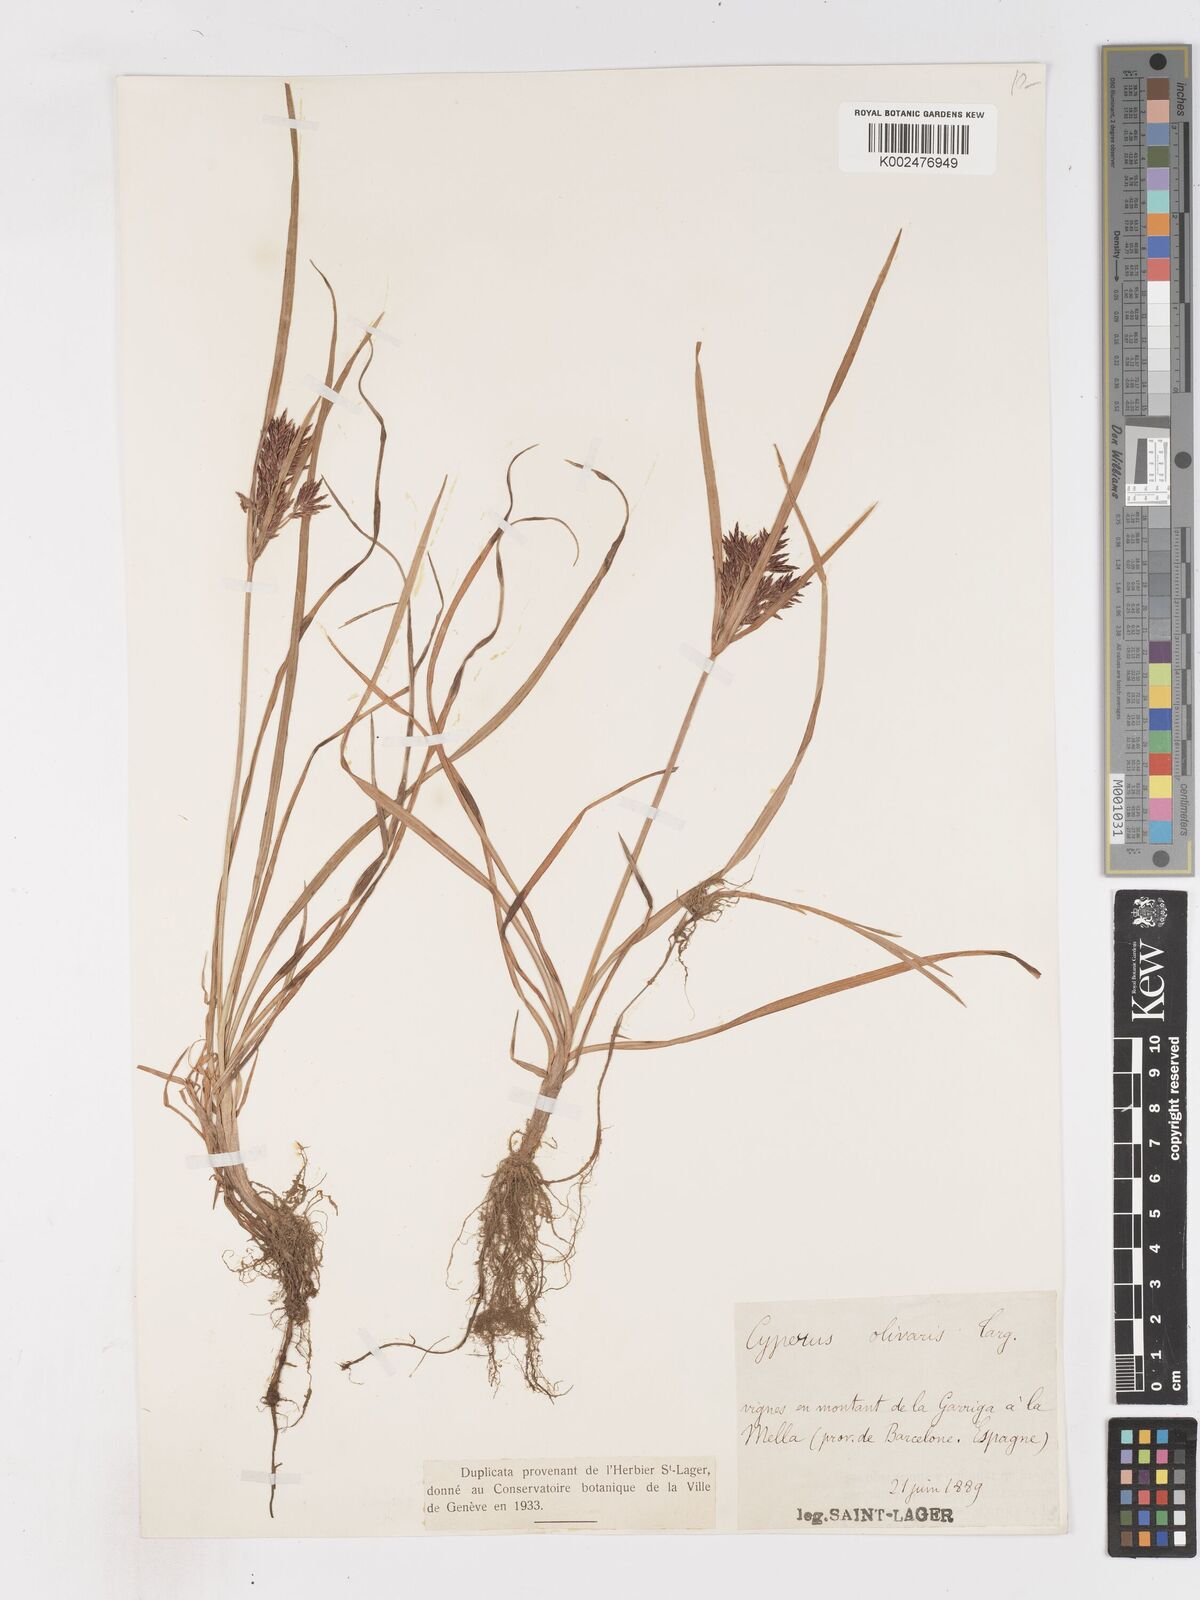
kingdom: Plantae
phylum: Tracheophyta
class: Liliopsida
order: Poales
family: Cyperaceae
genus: Cyperus
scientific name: Cyperus rotundus
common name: Nutgrass
